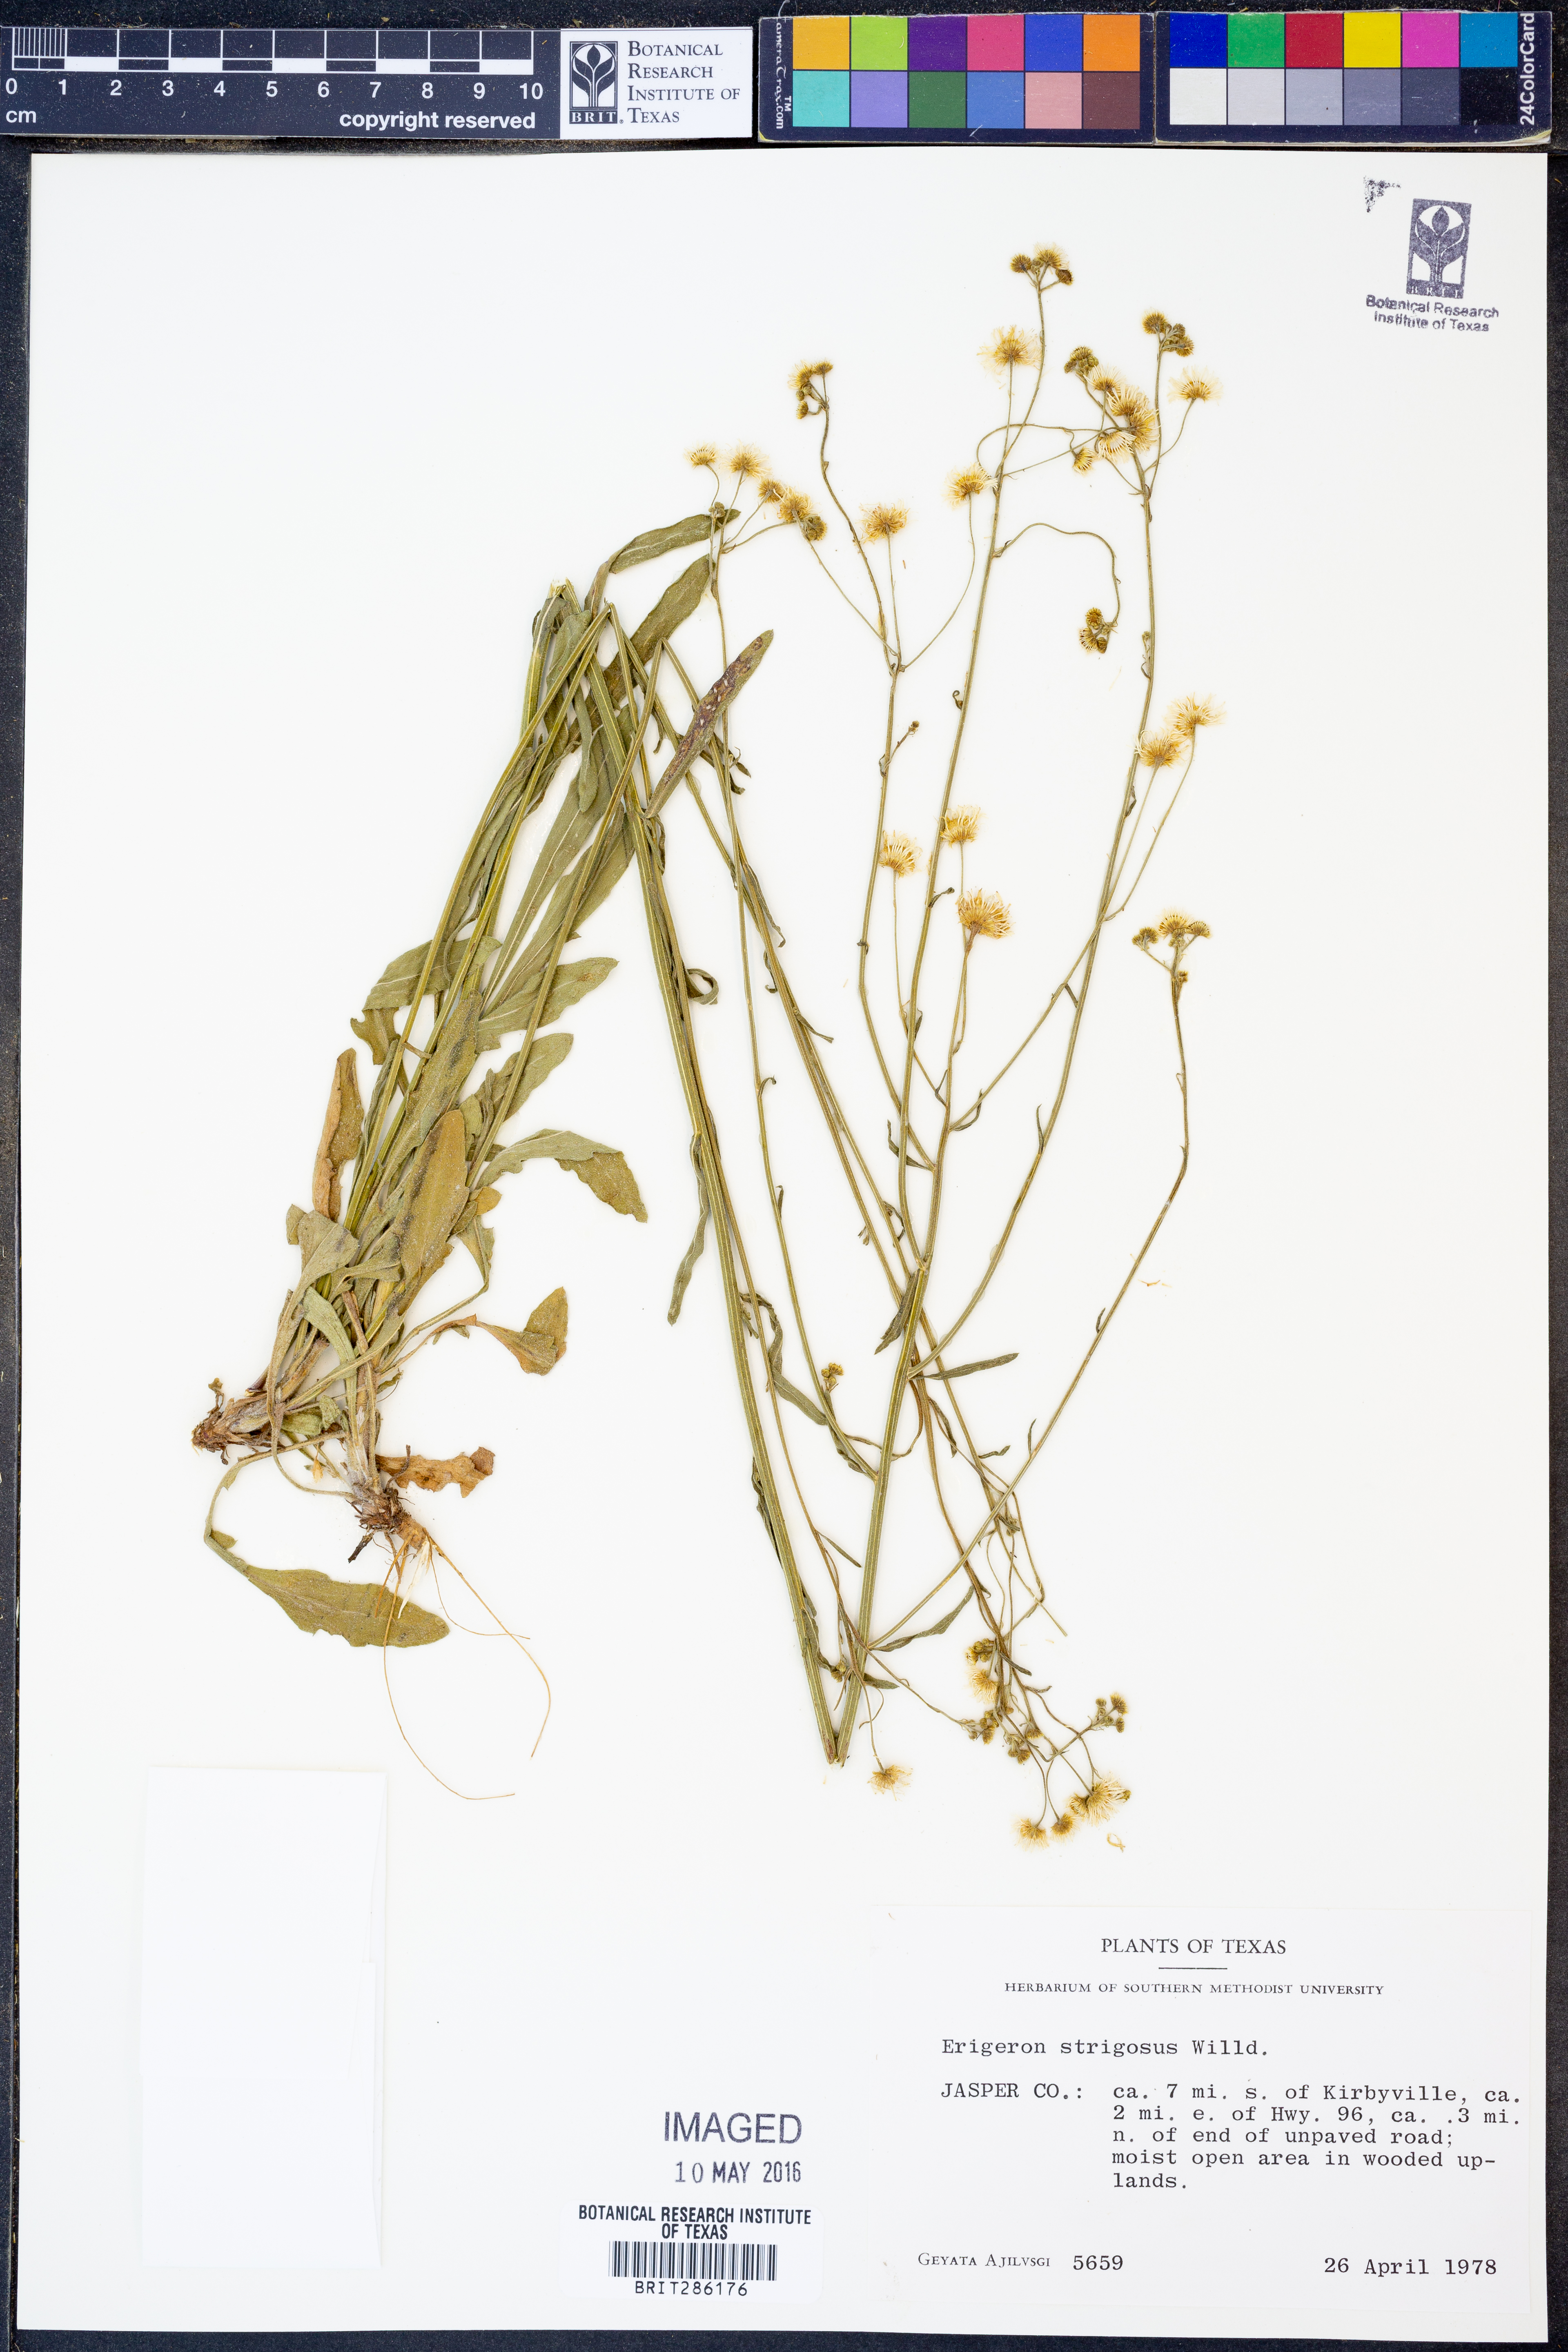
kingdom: Plantae
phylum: Tracheophyta
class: Magnoliopsida
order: Asterales
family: Asteraceae
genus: Erigeron
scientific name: Erigeron strigosus
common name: Common eastern fleabane
